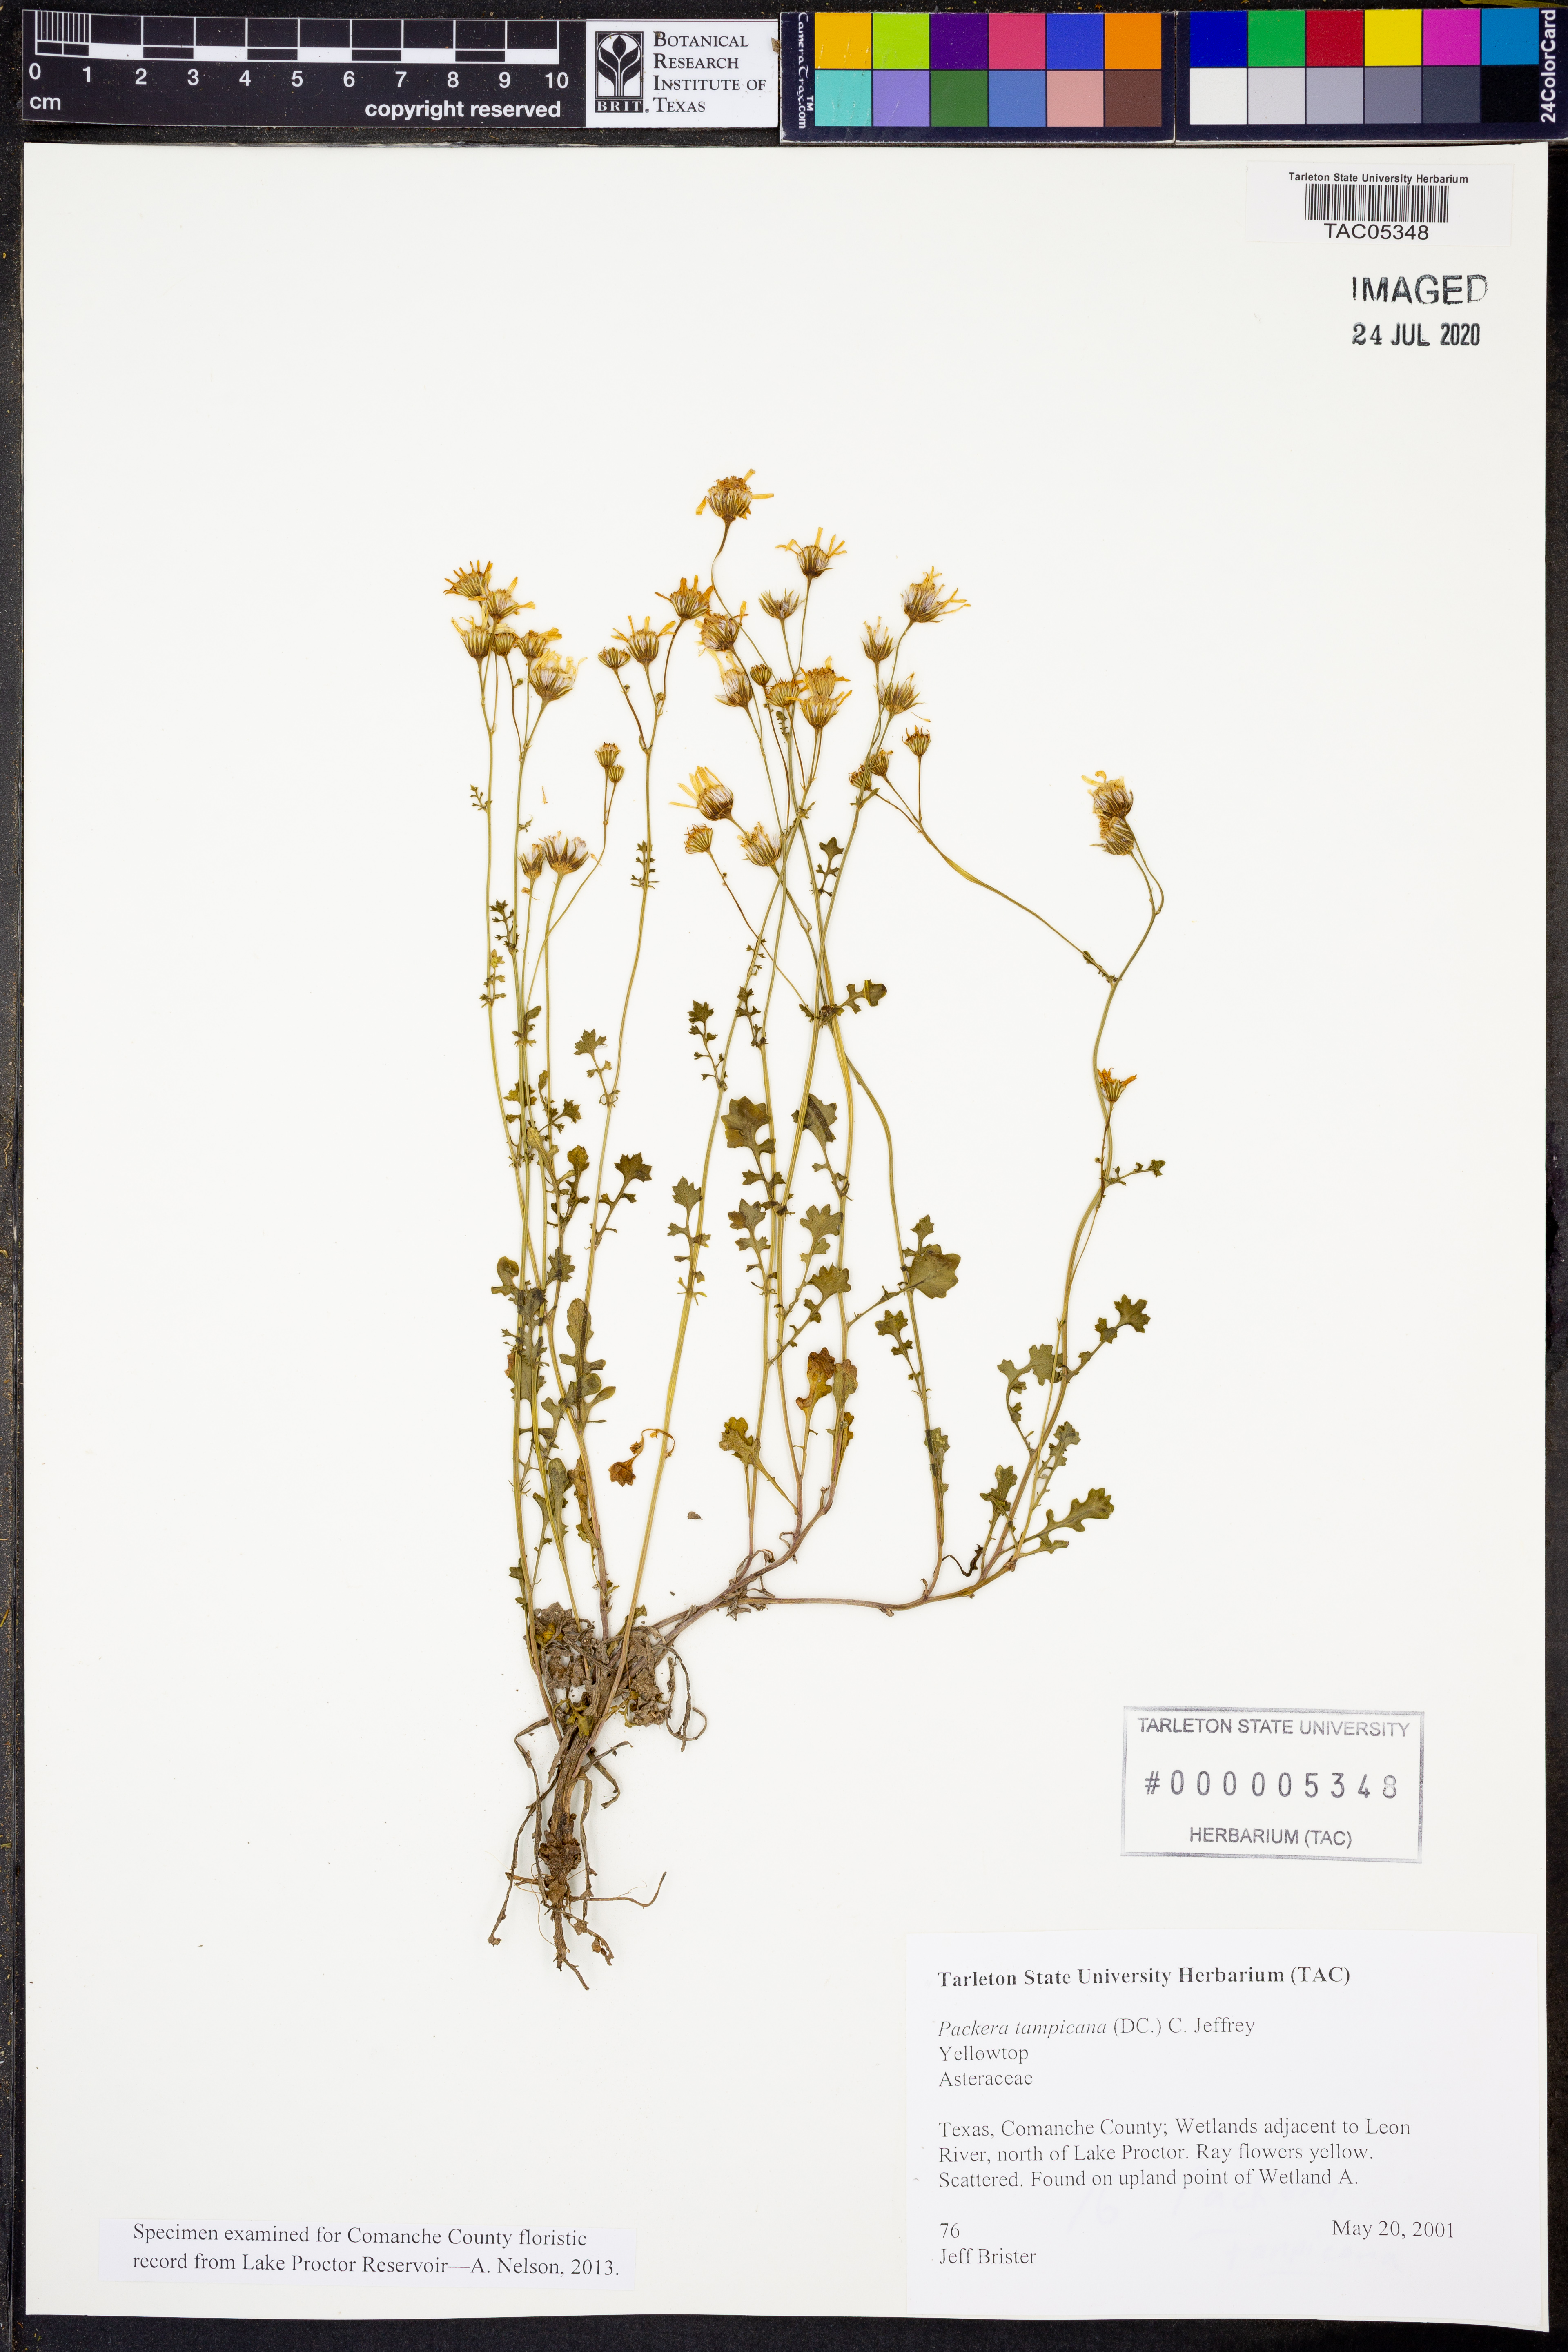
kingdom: Plantae
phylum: Tracheophyta
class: Magnoliopsida
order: Asterales
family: Asteraceae
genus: Packera
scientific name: Packera tampicana
